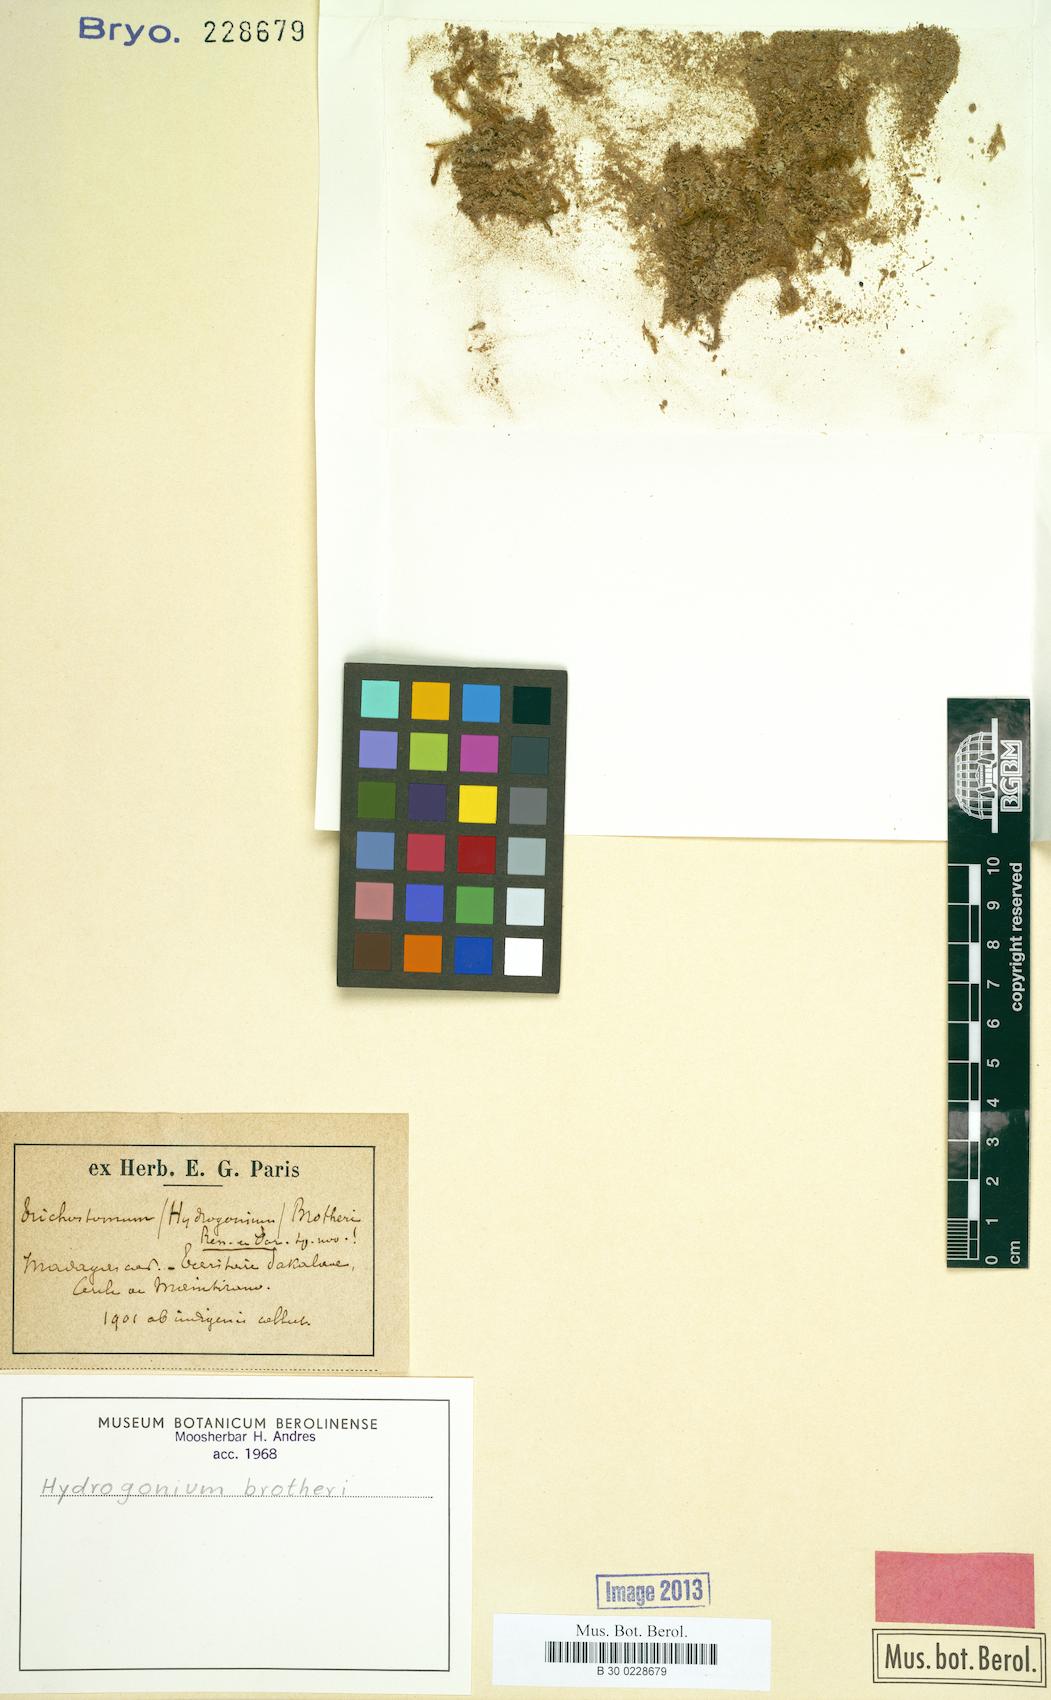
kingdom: Plantae
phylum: Bryophyta
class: Bryopsida
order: Pottiales
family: Pottiaceae
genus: Hydrogonium
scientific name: Hydrogonium bolleanum
